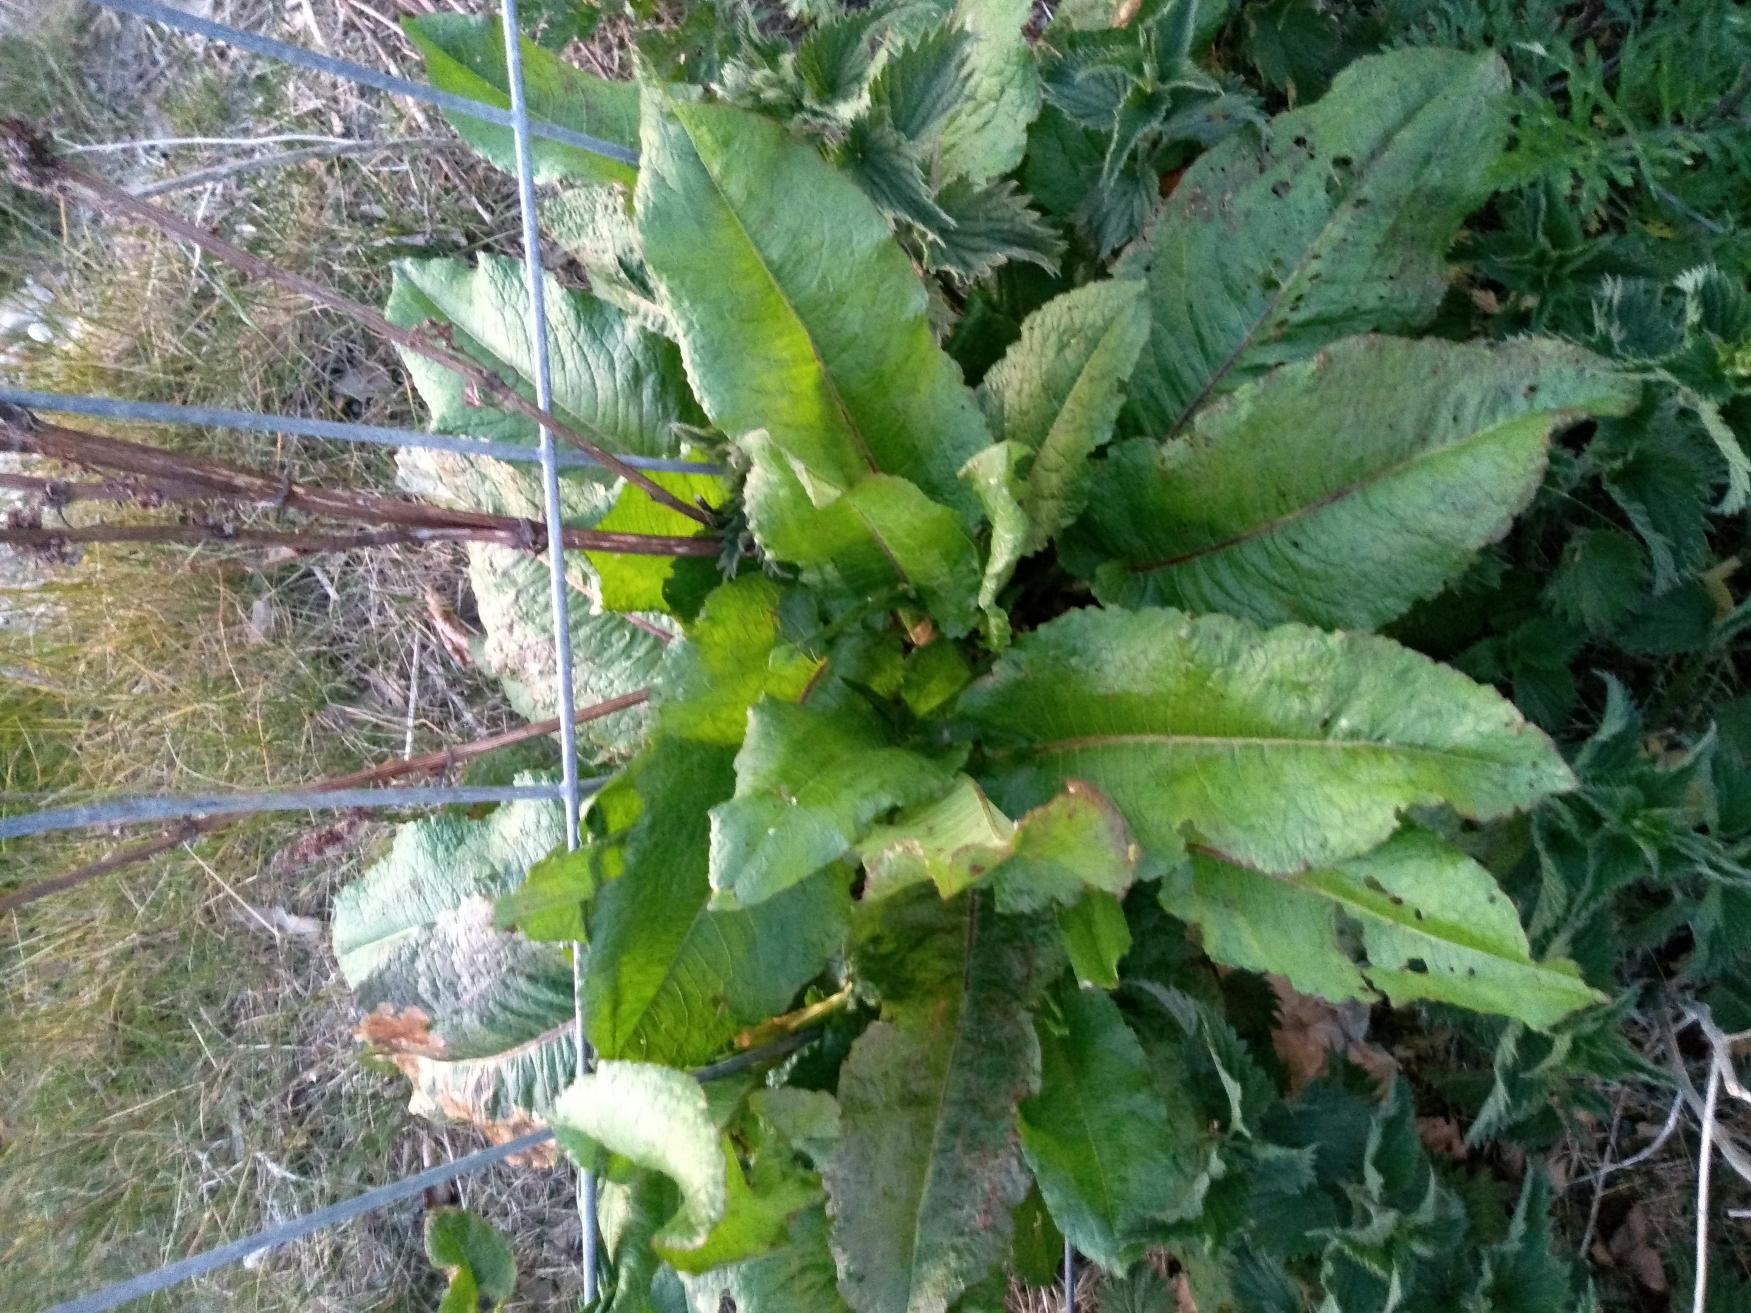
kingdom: Plantae
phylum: Tracheophyta
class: Magnoliopsida
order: Caryophyllales
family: Polygonaceae
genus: Rumex
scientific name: Rumex obtusifolius
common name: Butbladet skræppe
